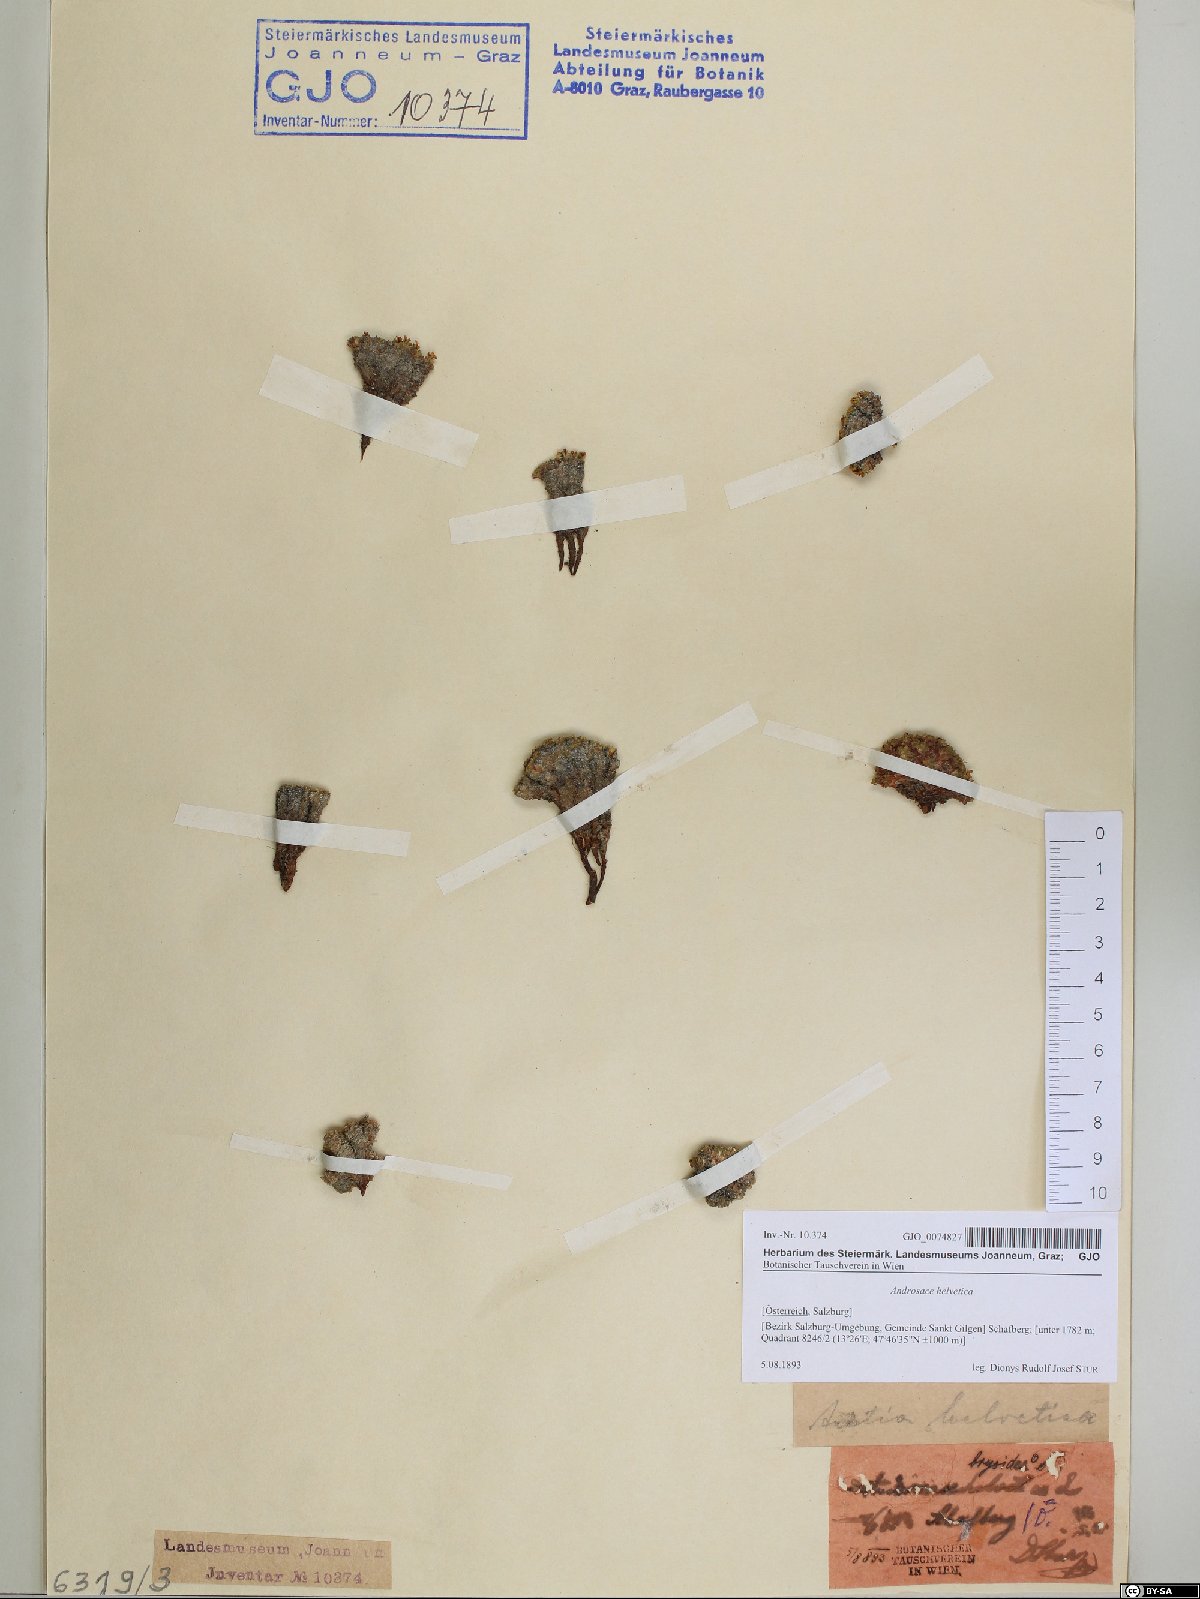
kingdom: Plantae
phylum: Tracheophyta
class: Magnoliopsida
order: Ericales
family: Primulaceae
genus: Androsace
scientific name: Androsace helvetica
